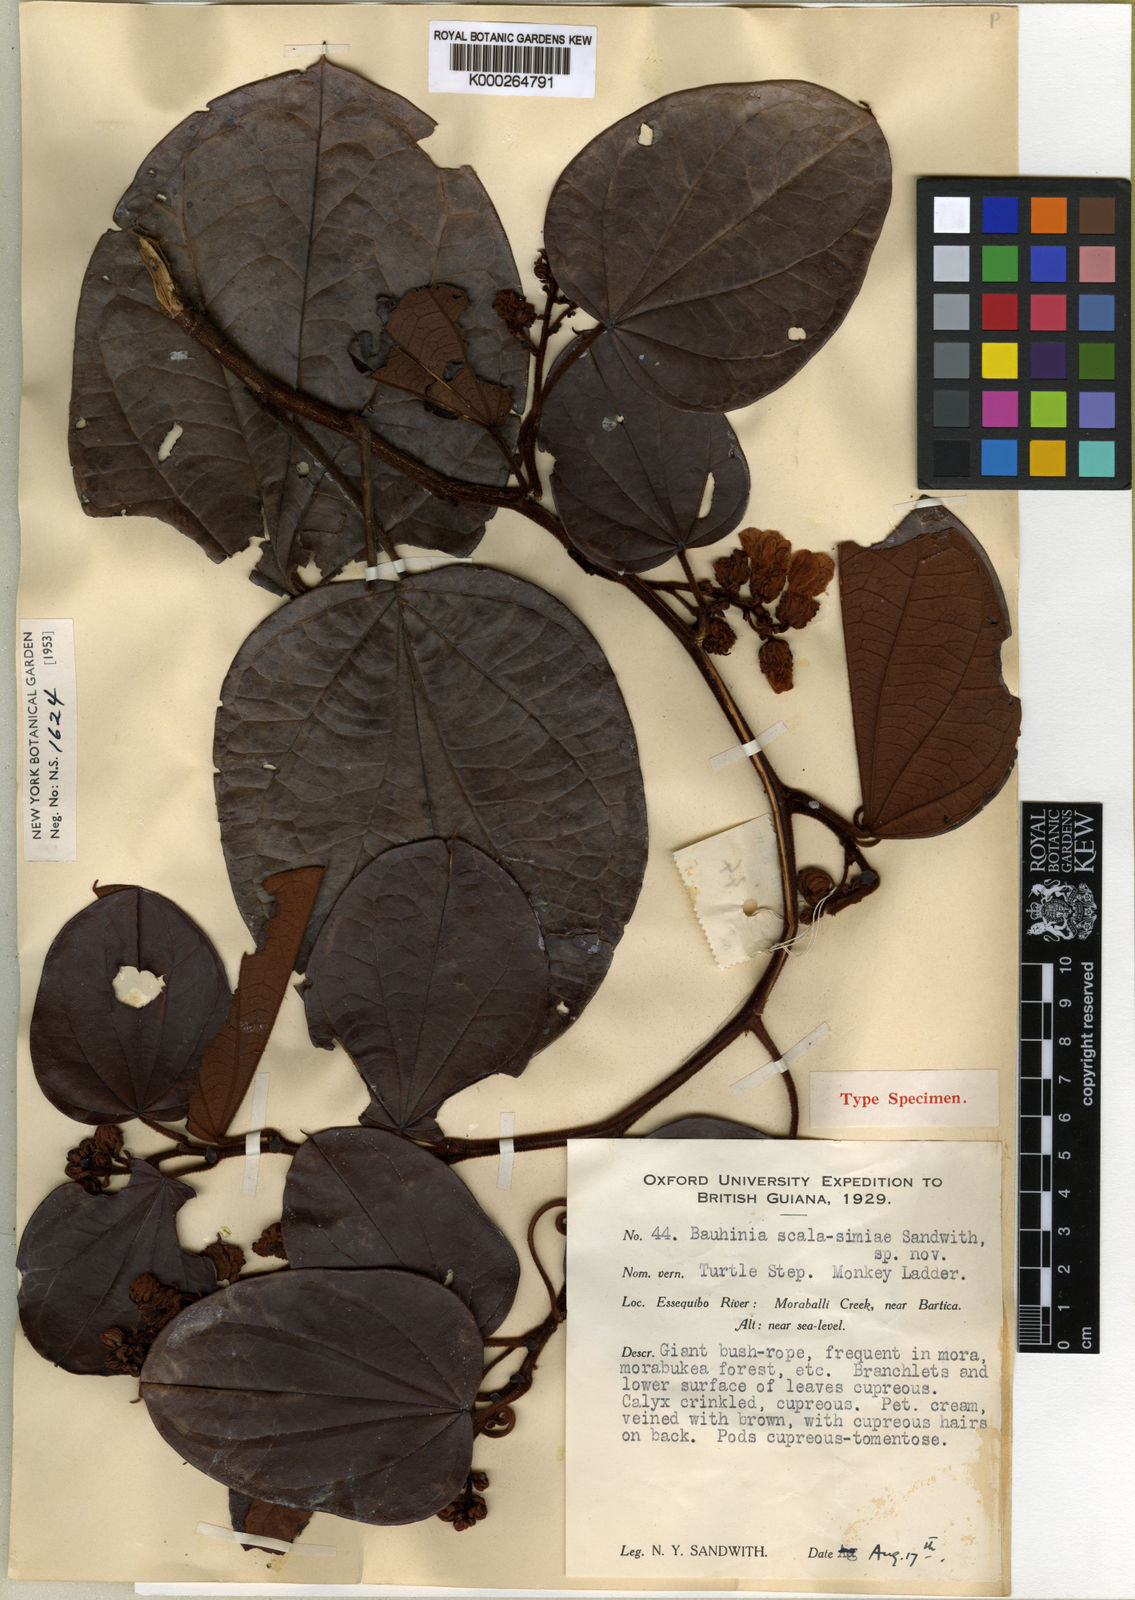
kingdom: Plantae
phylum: Tracheophyta
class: Magnoliopsida
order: Fabales
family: Fabaceae
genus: Schnella
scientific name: Schnella scala-simiae
